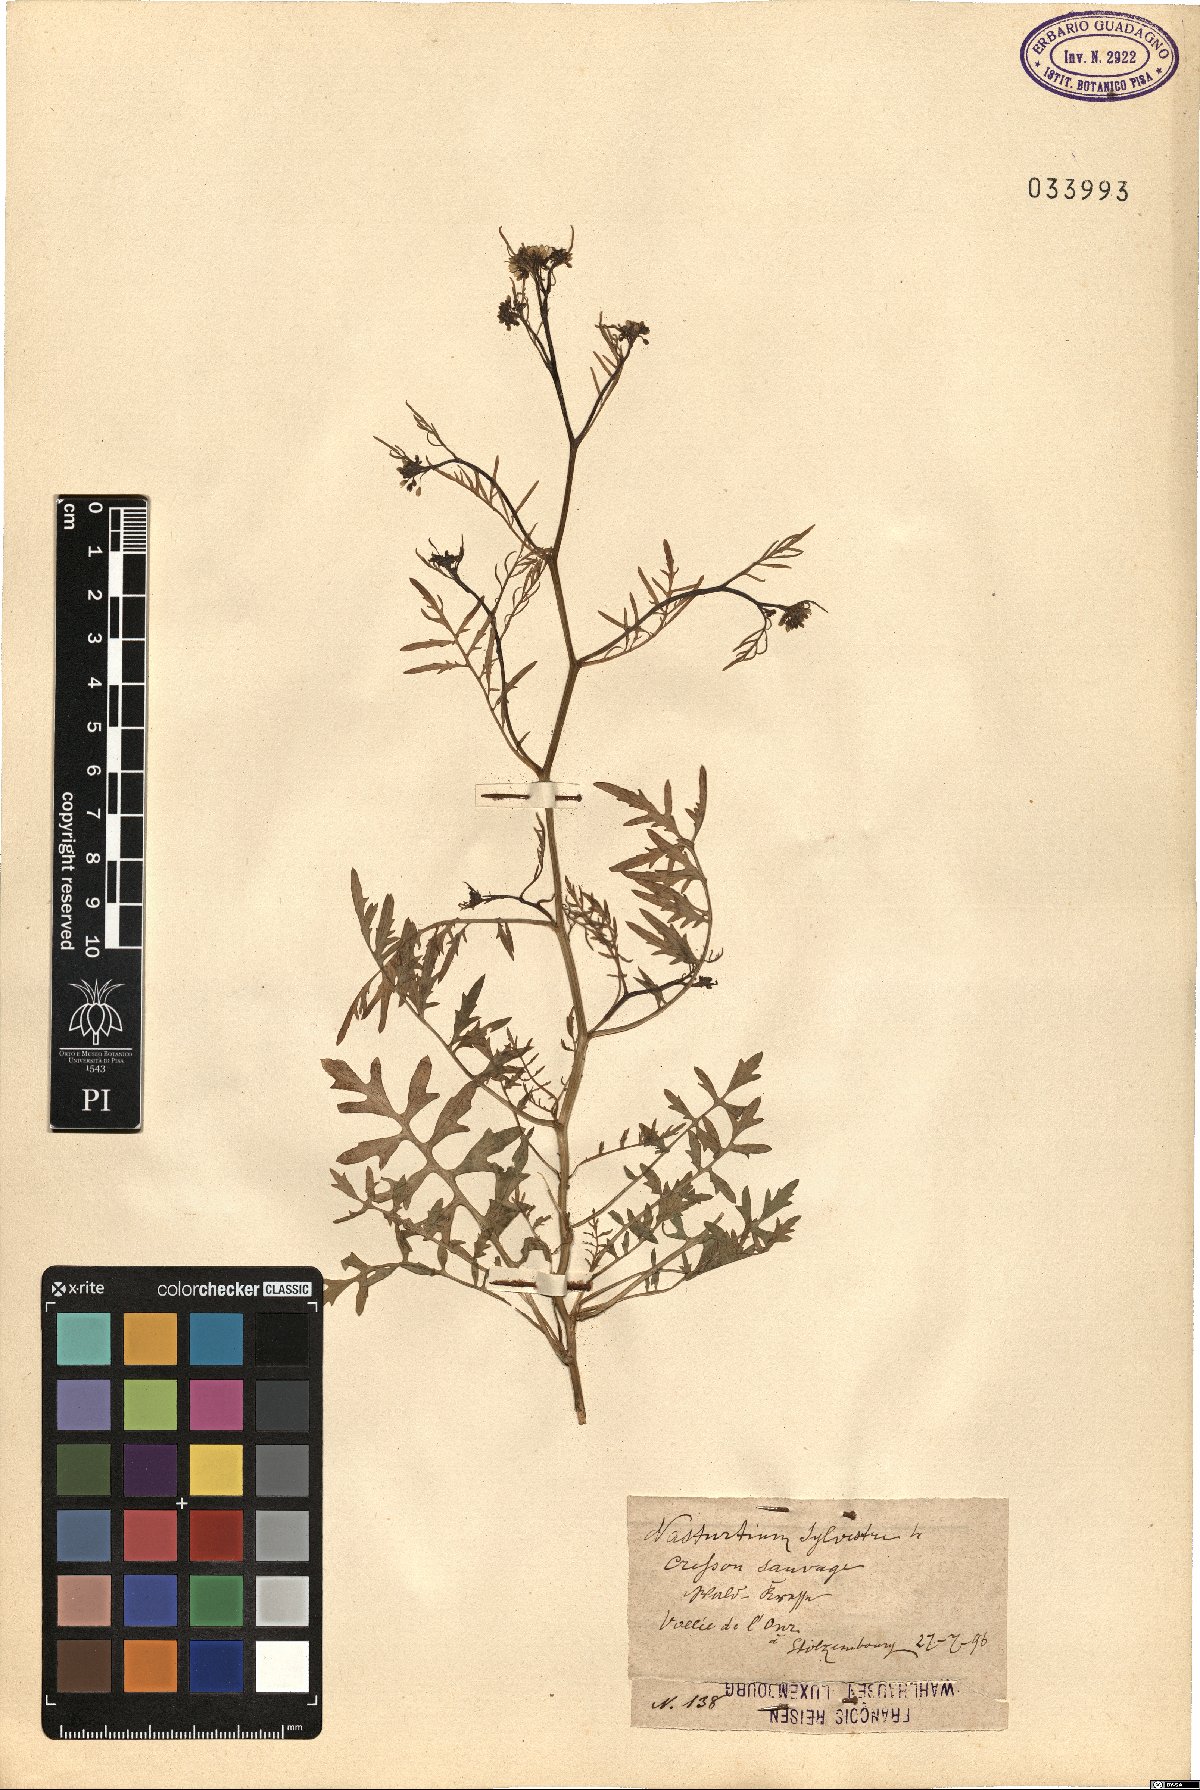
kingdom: Plantae
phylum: Tracheophyta
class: Magnoliopsida
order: Brassicales
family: Brassicaceae
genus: Rorippa
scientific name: Rorippa sylvestris
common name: Creeping yellowcress
